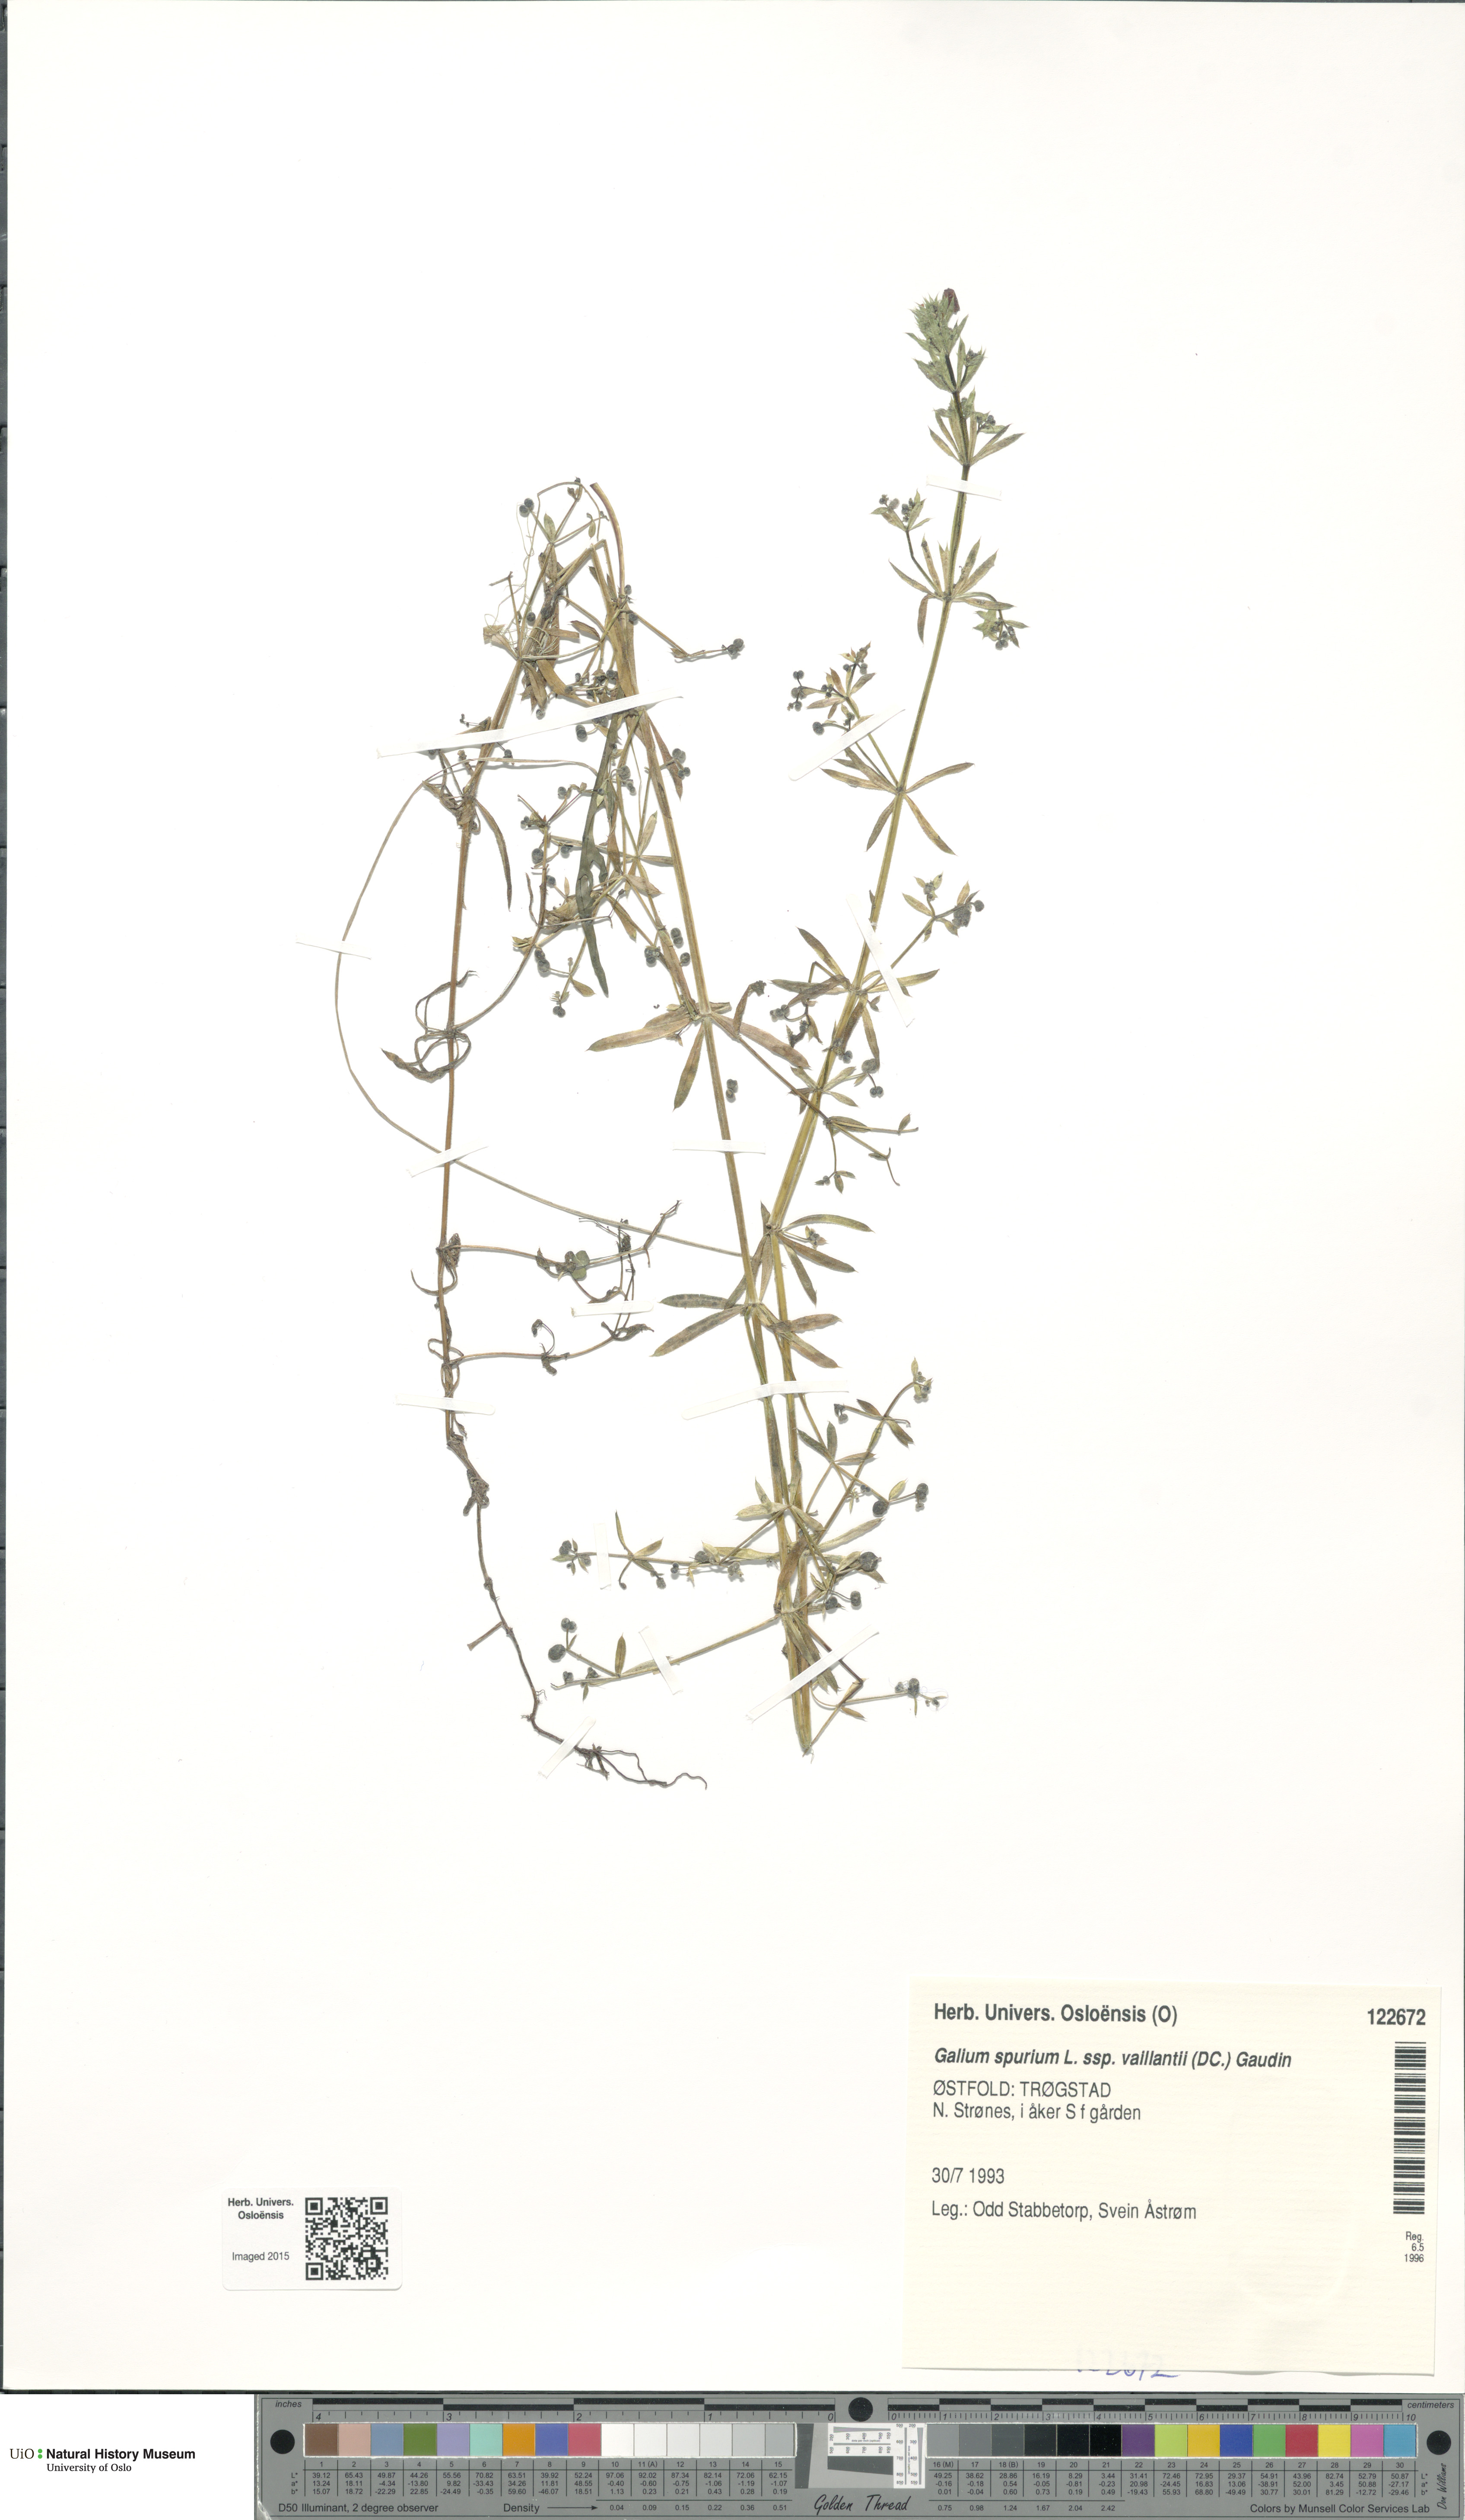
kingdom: Plantae
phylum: Tracheophyta
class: Magnoliopsida
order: Gentianales
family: Rubiaceae
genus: Galium
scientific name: Galium spurium
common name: False cleavers
